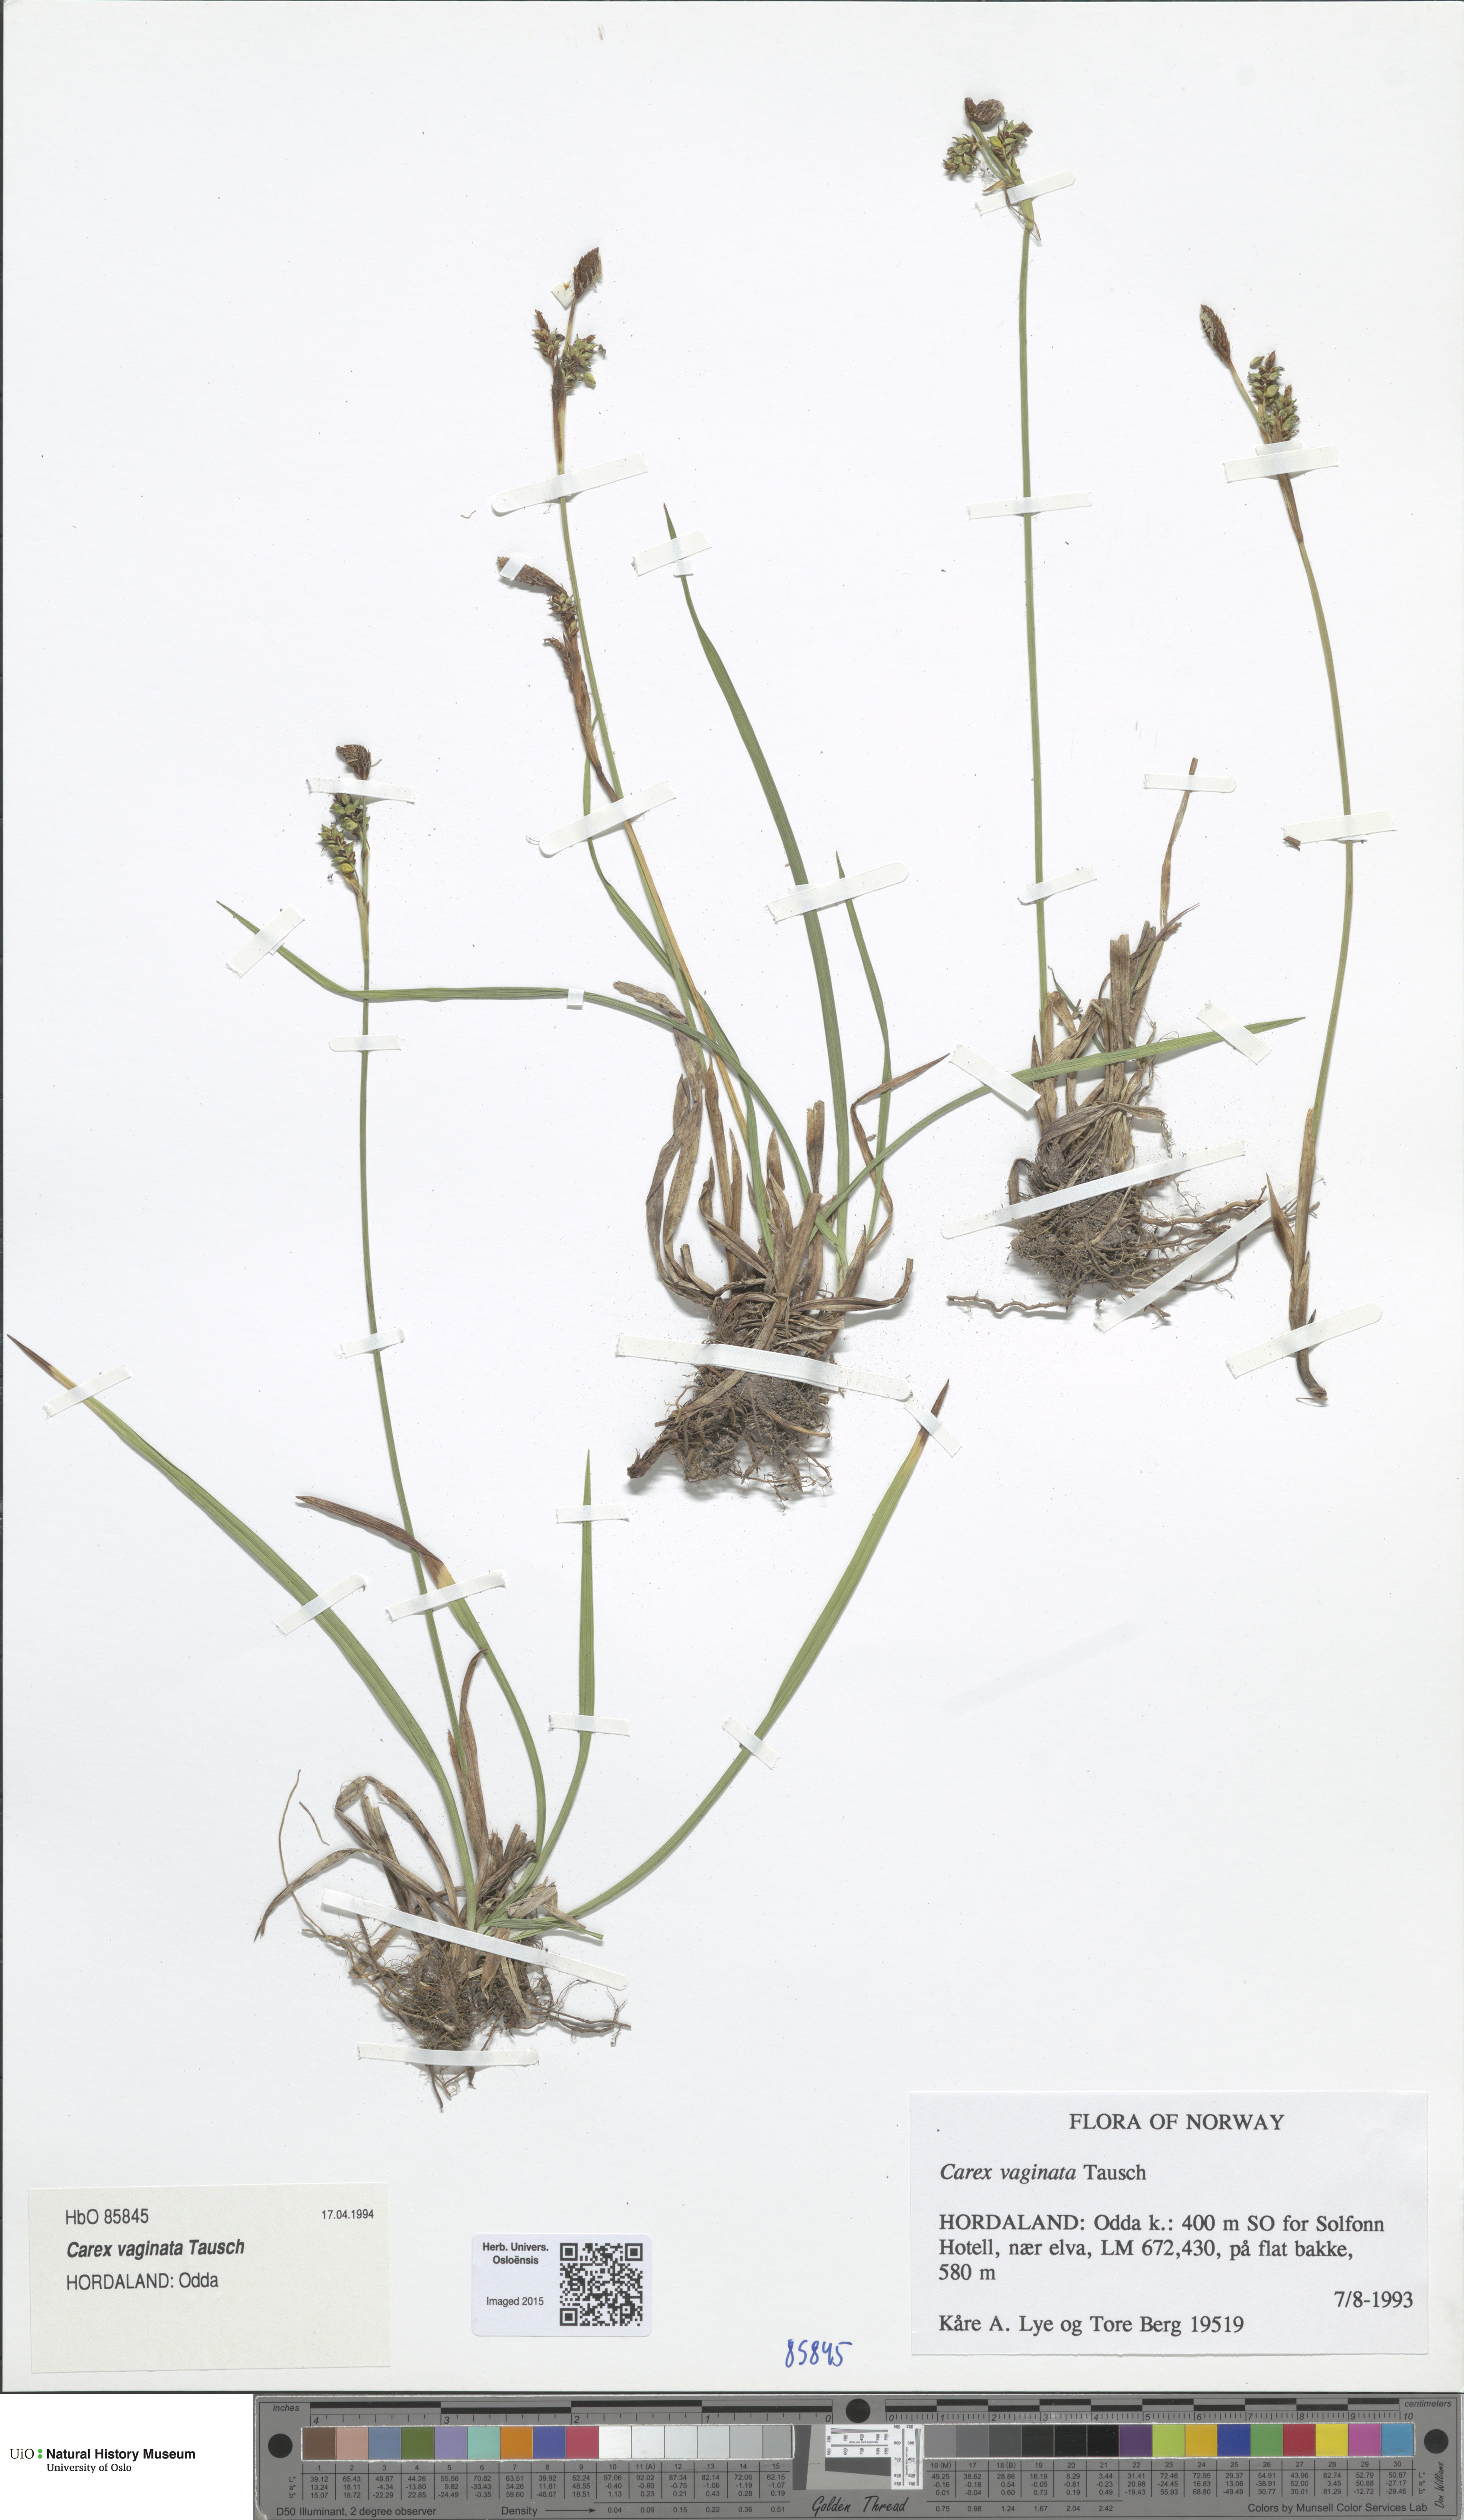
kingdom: Plantae
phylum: Tracheophyta
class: Liliopsida
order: Poales
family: Cyperaceae
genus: Carex
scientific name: Carex vaginata
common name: Sheathed sedge
